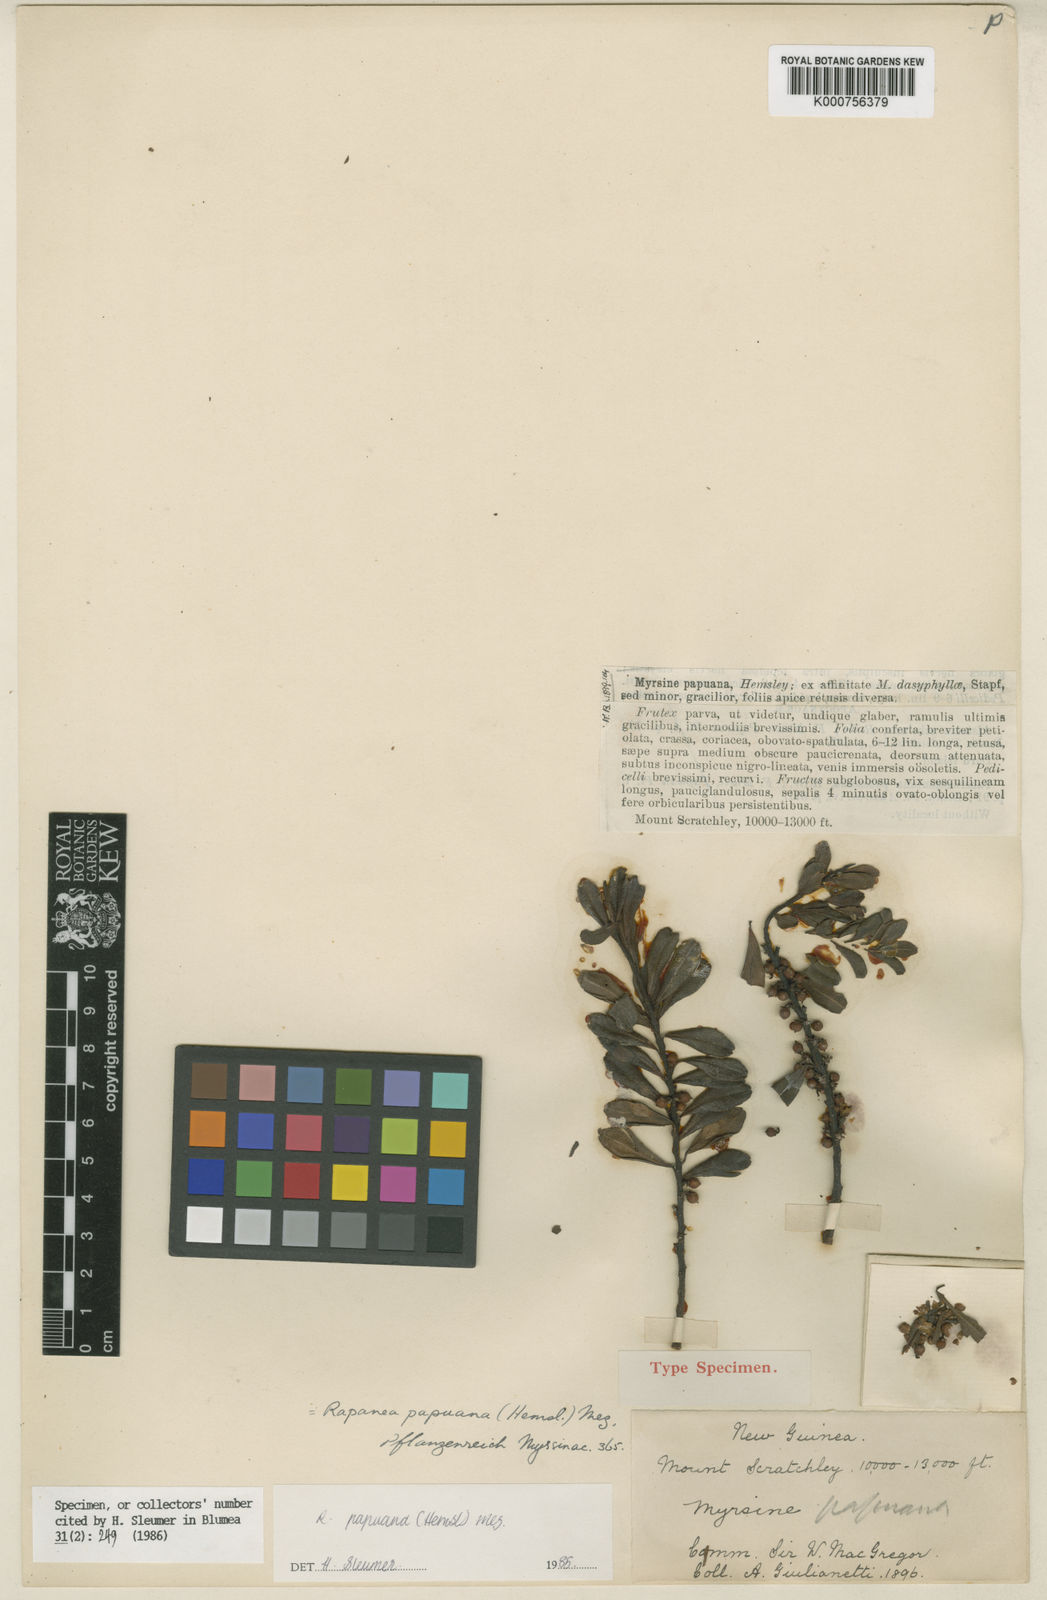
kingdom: Plantae
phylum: Tracheophyta
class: Magnoliopsida
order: Ericales
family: Primulaceae
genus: Myrsine
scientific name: Myrsine papuana
